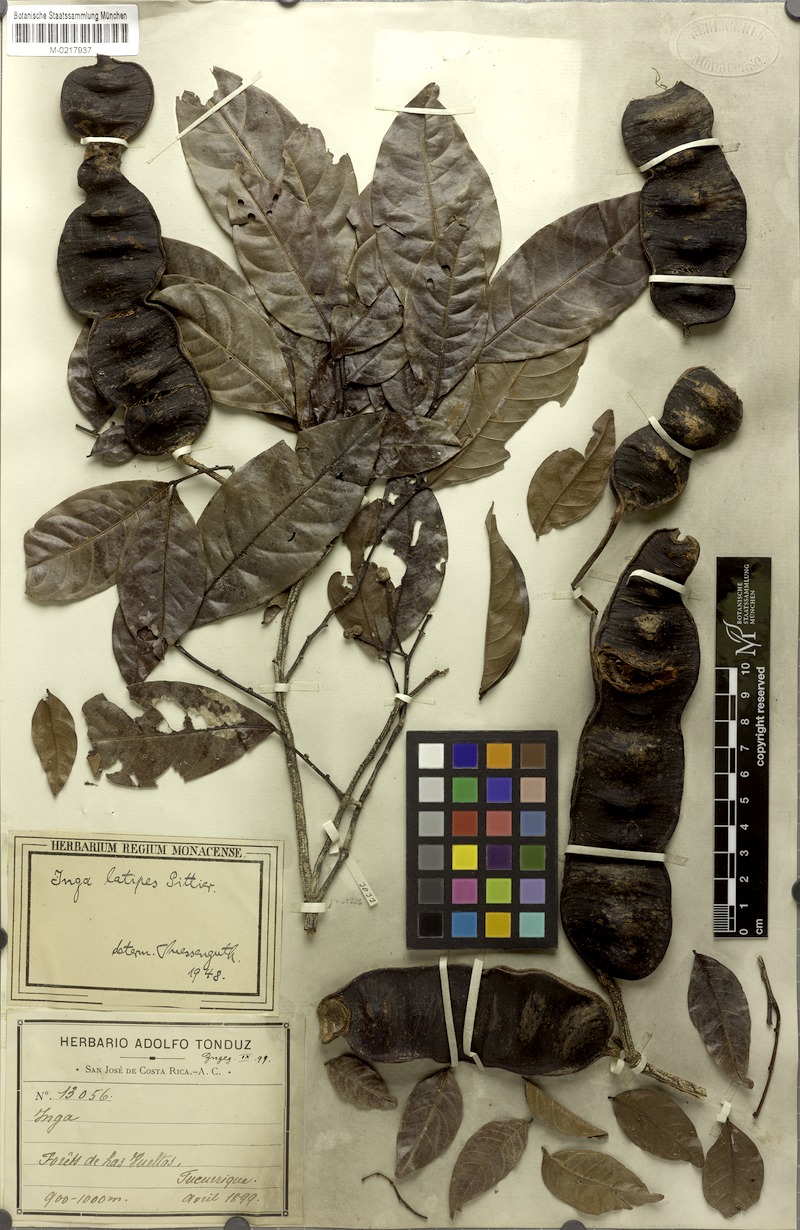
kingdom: Plantae
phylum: Tracheophyta
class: Magnoliopsida
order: Fabales
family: Fabaceae
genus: Inga
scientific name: Inga latipes
